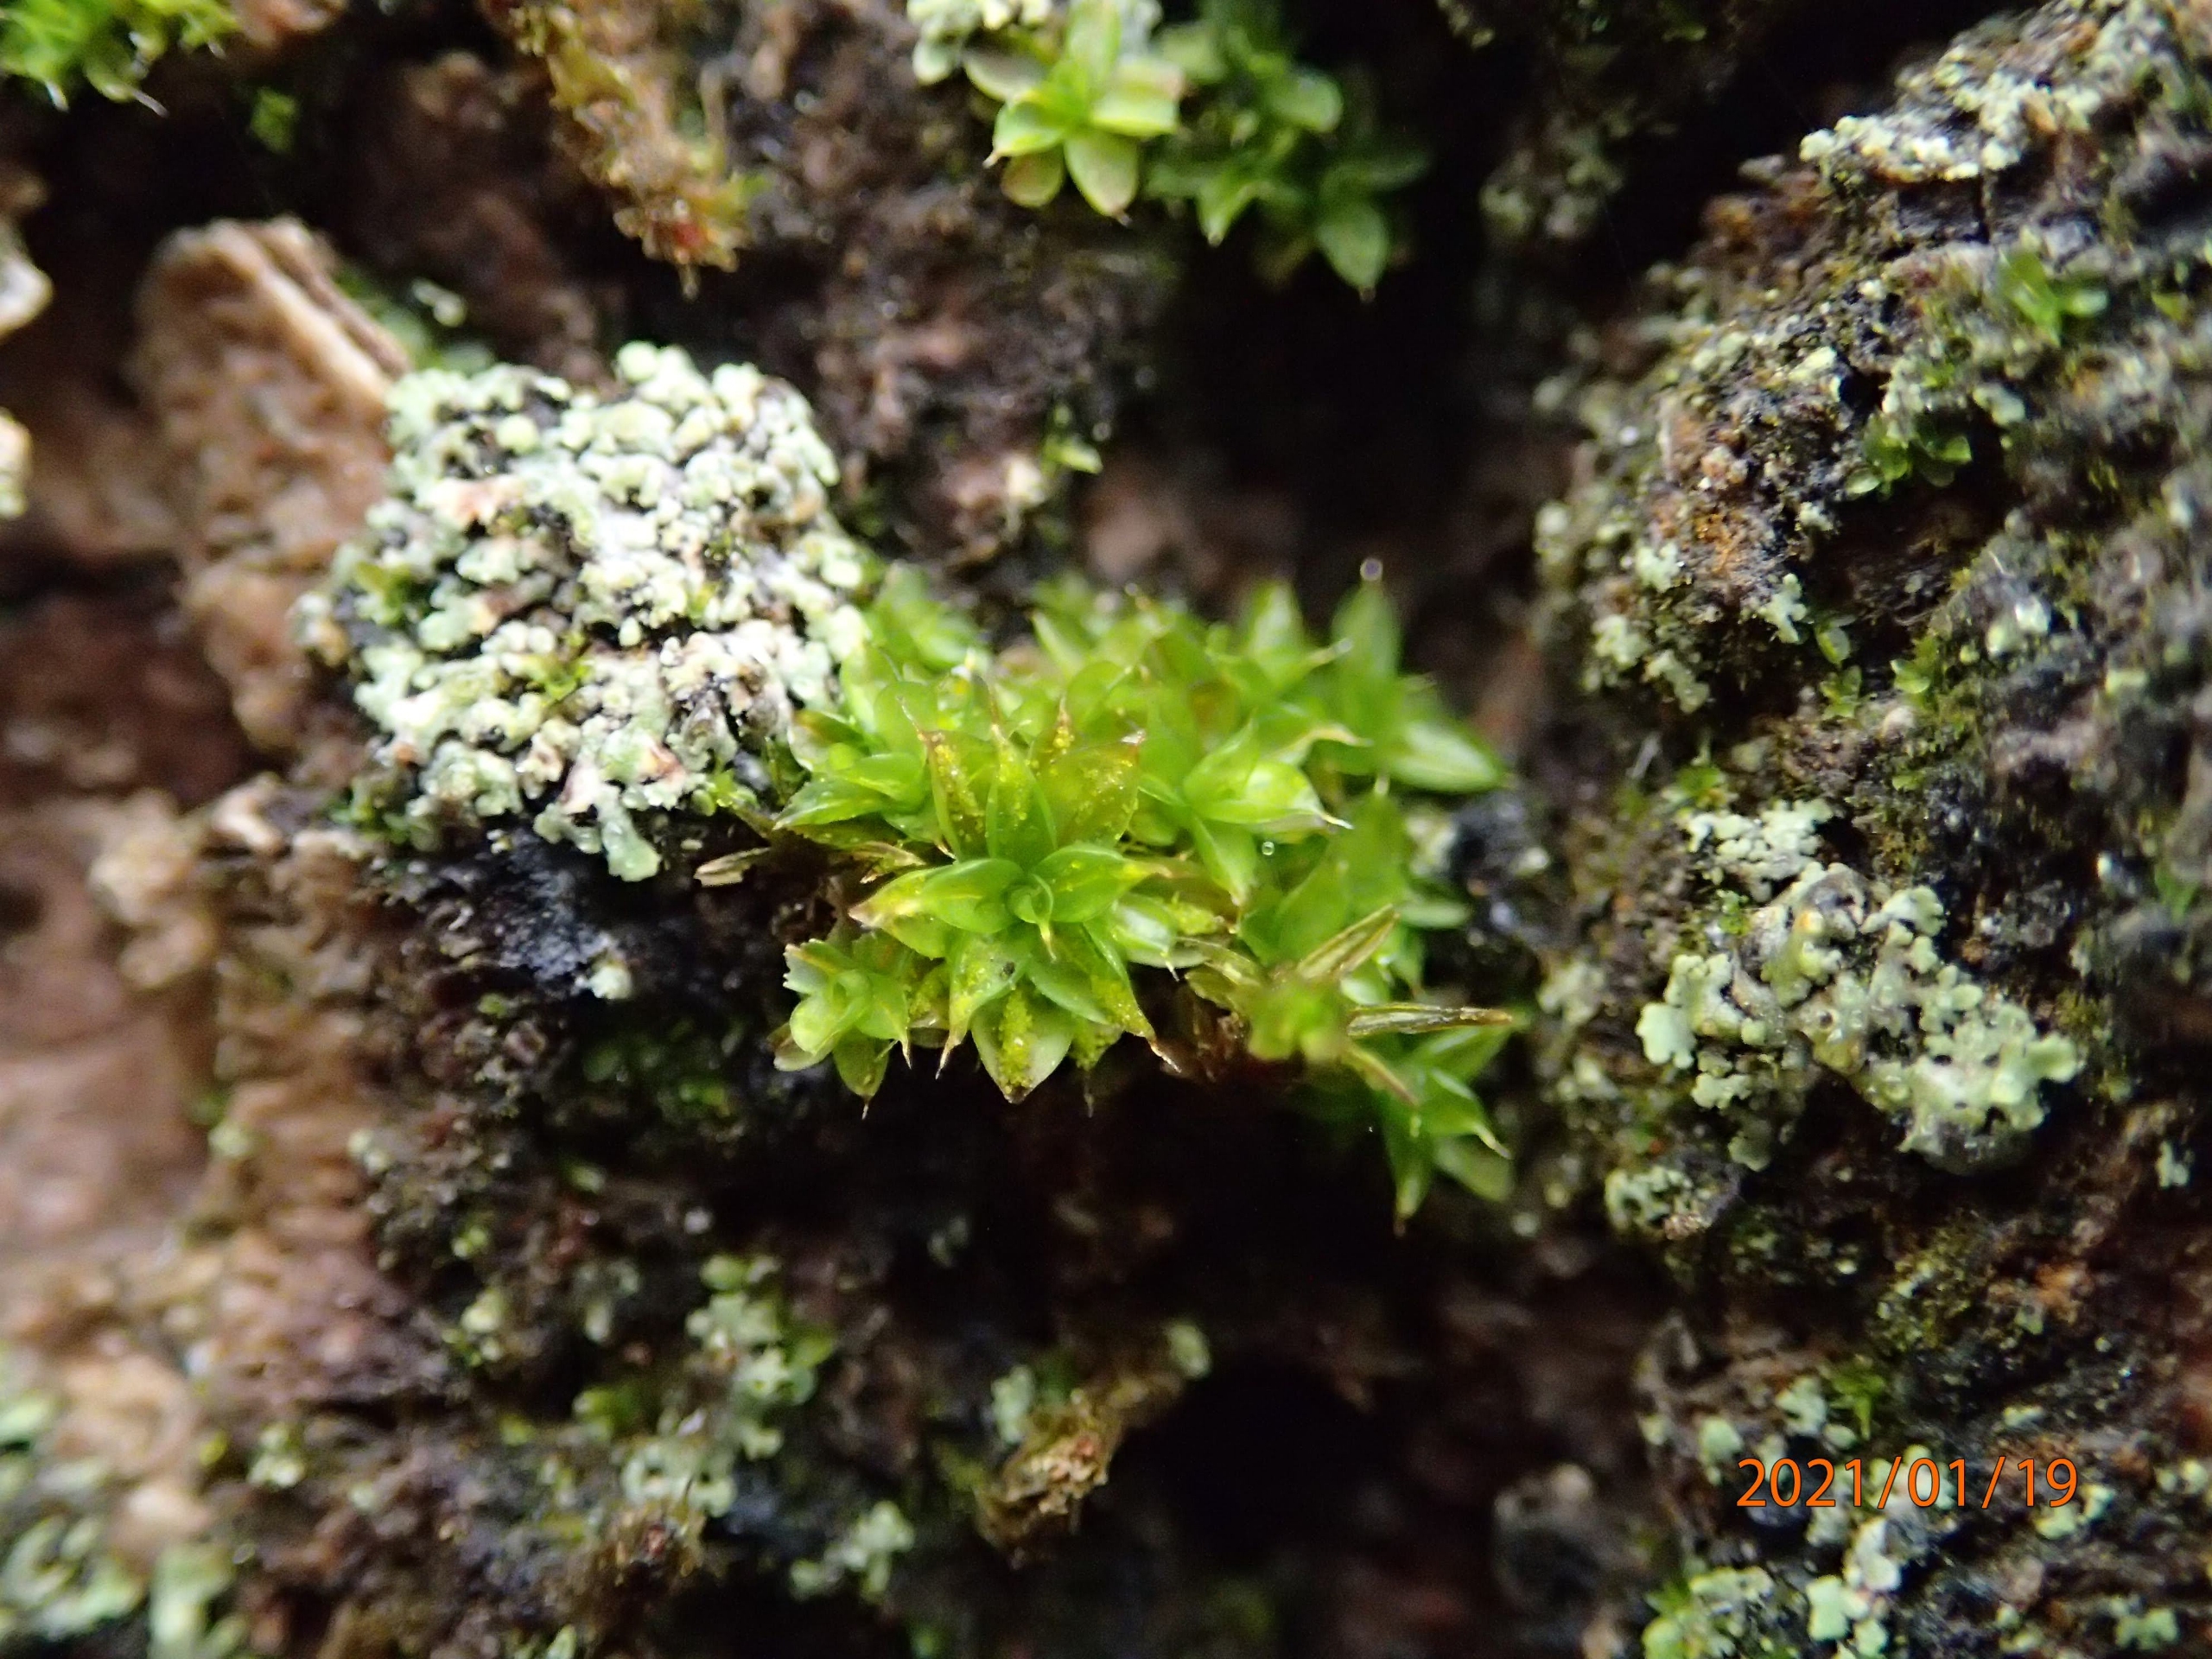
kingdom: Plantae
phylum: Bryophyta
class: Bryopsida
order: Pottiales
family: Pottiaceae
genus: Syntrichia
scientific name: Syntrichia papillosa
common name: Bark-hårstjerne
